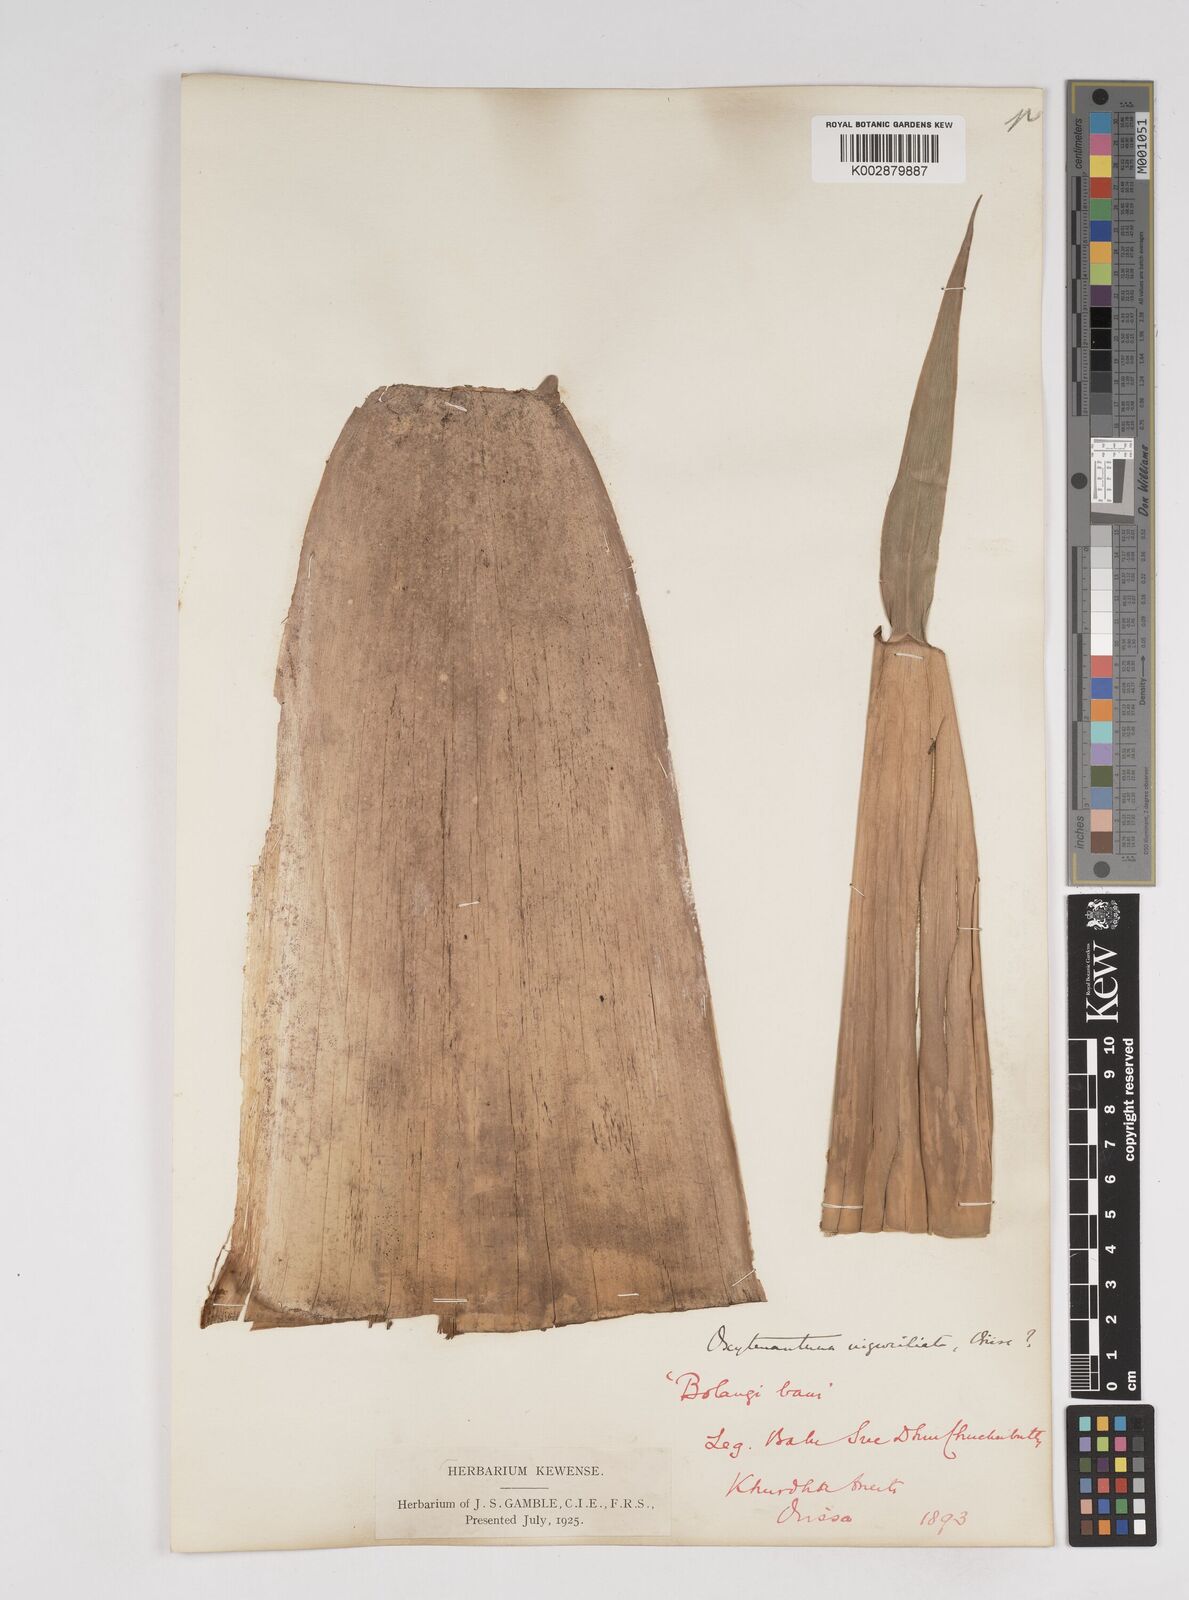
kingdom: Plantae
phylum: Tracheophyta
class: Liliopsida
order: Poales
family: Poaceae
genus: Gigantochloa
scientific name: Gigantochloa
